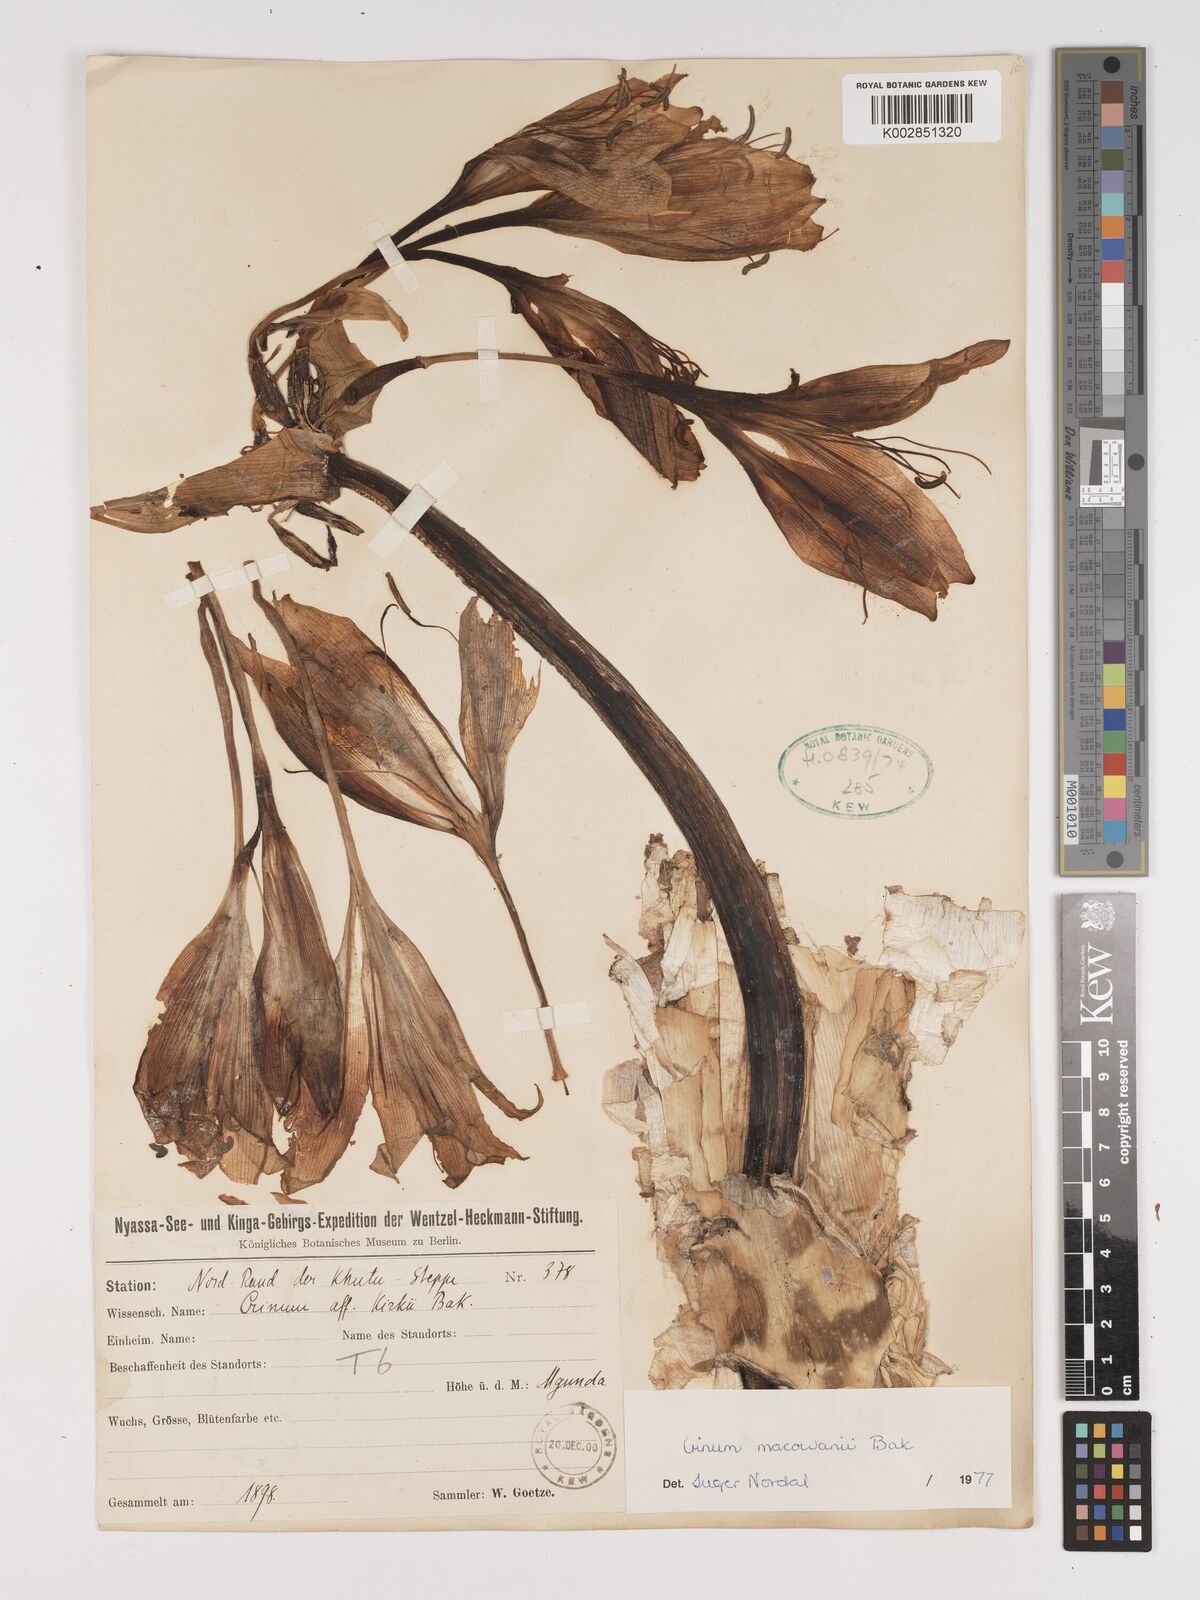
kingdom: Plantae
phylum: Tracheophyta
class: Liliopsida
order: Asparagales
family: Amaryllidaceae
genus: Crinum
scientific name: Crinum macowanii
